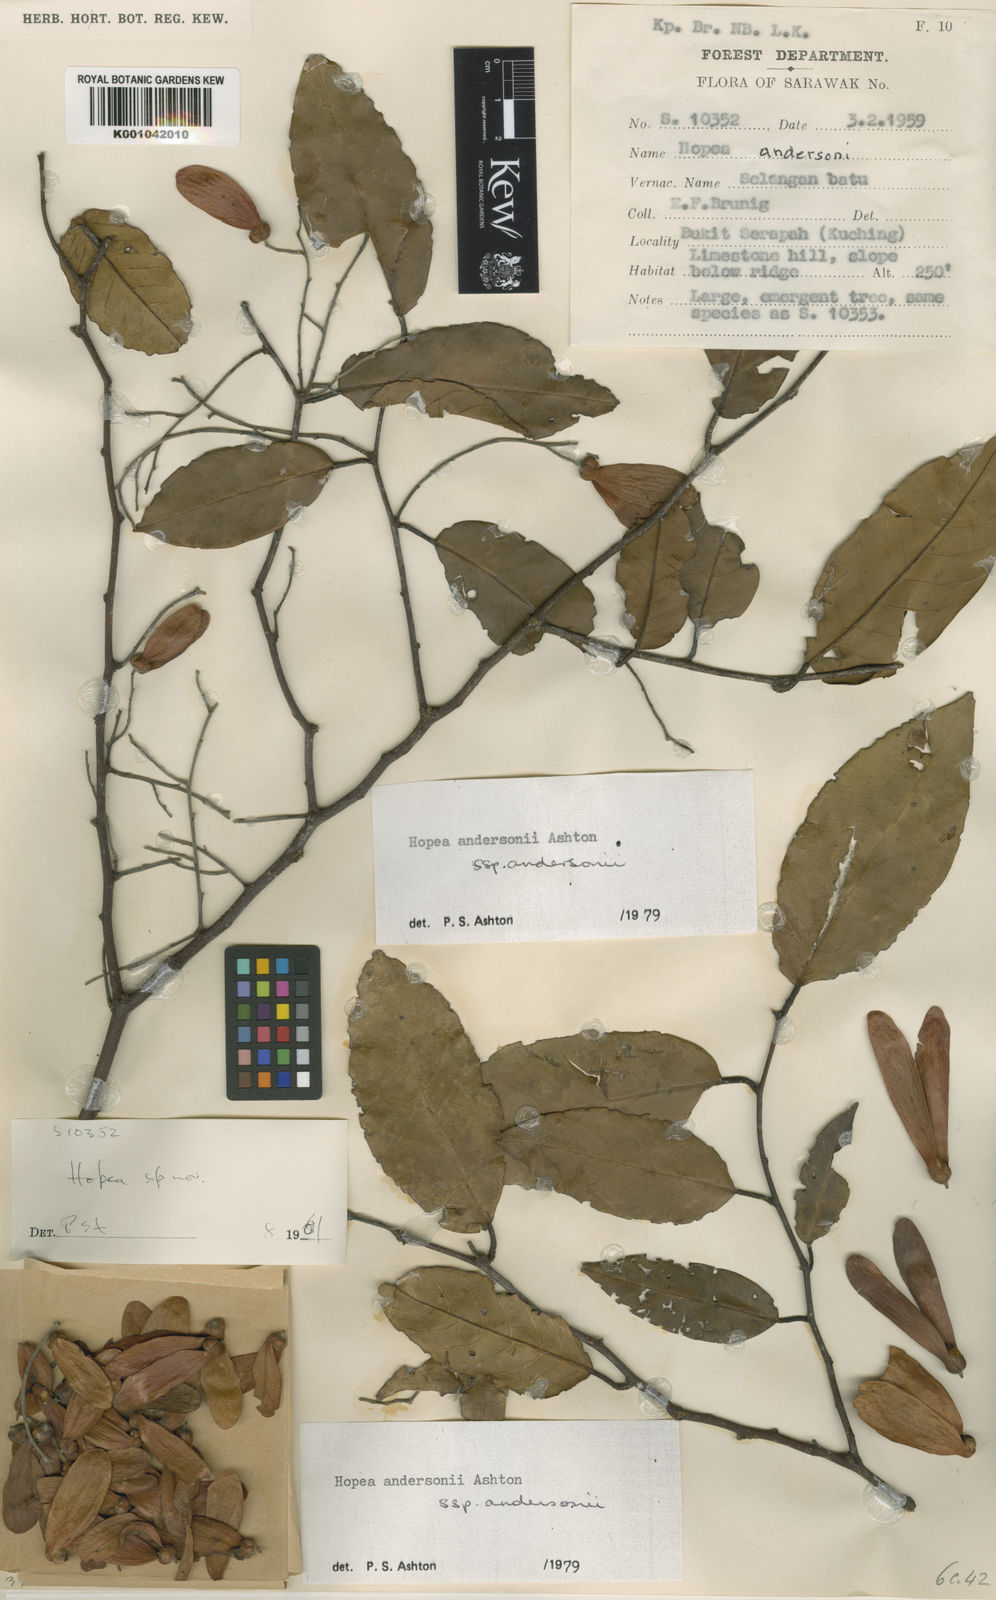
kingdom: Plantae
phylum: Tracheophyta
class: Magnoliopsida
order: Malvales
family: Dipterocarpaceae
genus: Hopea
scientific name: Hopea andersonii
